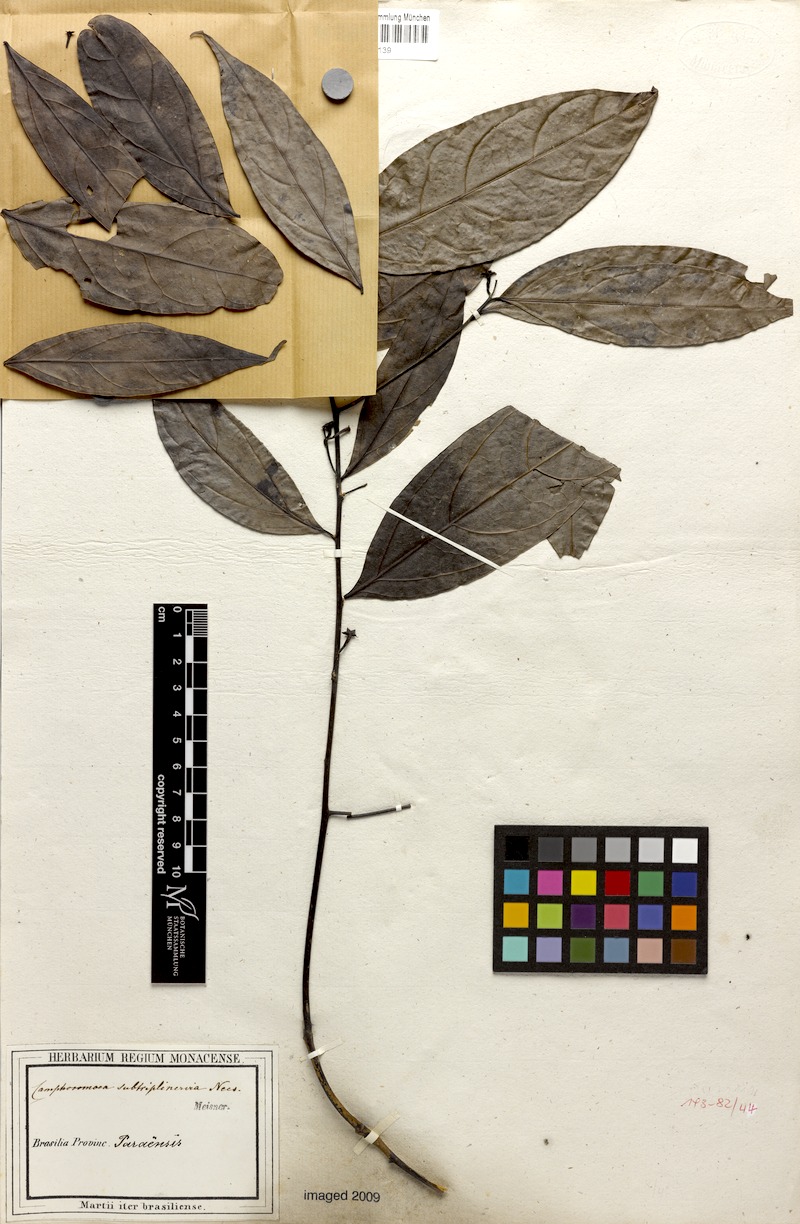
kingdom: Plantae
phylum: Tracheophyta
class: Magnoliopsida
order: Laurales
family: Lauraceae
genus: Ocotea
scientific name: Ocotea camphoromoea
